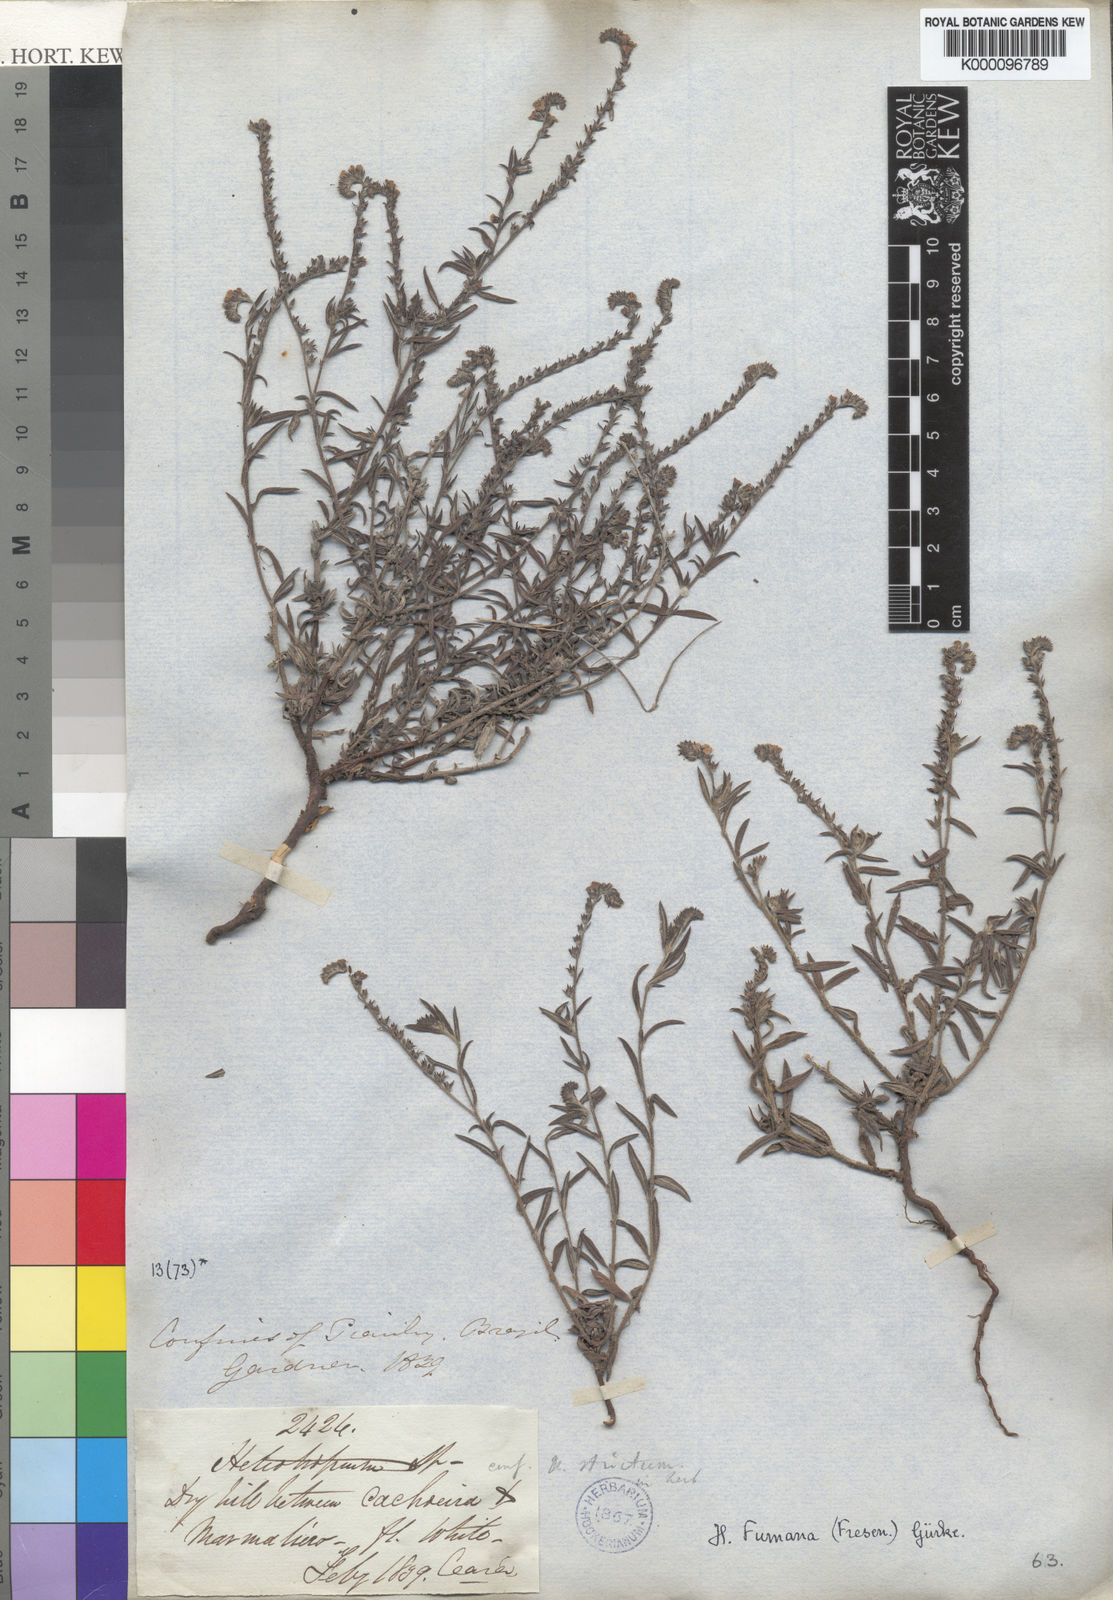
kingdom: Plantae
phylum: Tracheophyta
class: Magnoliopsida
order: Boraginales
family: Heliotropiaceae
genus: Heliotropium
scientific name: Heliotropium
